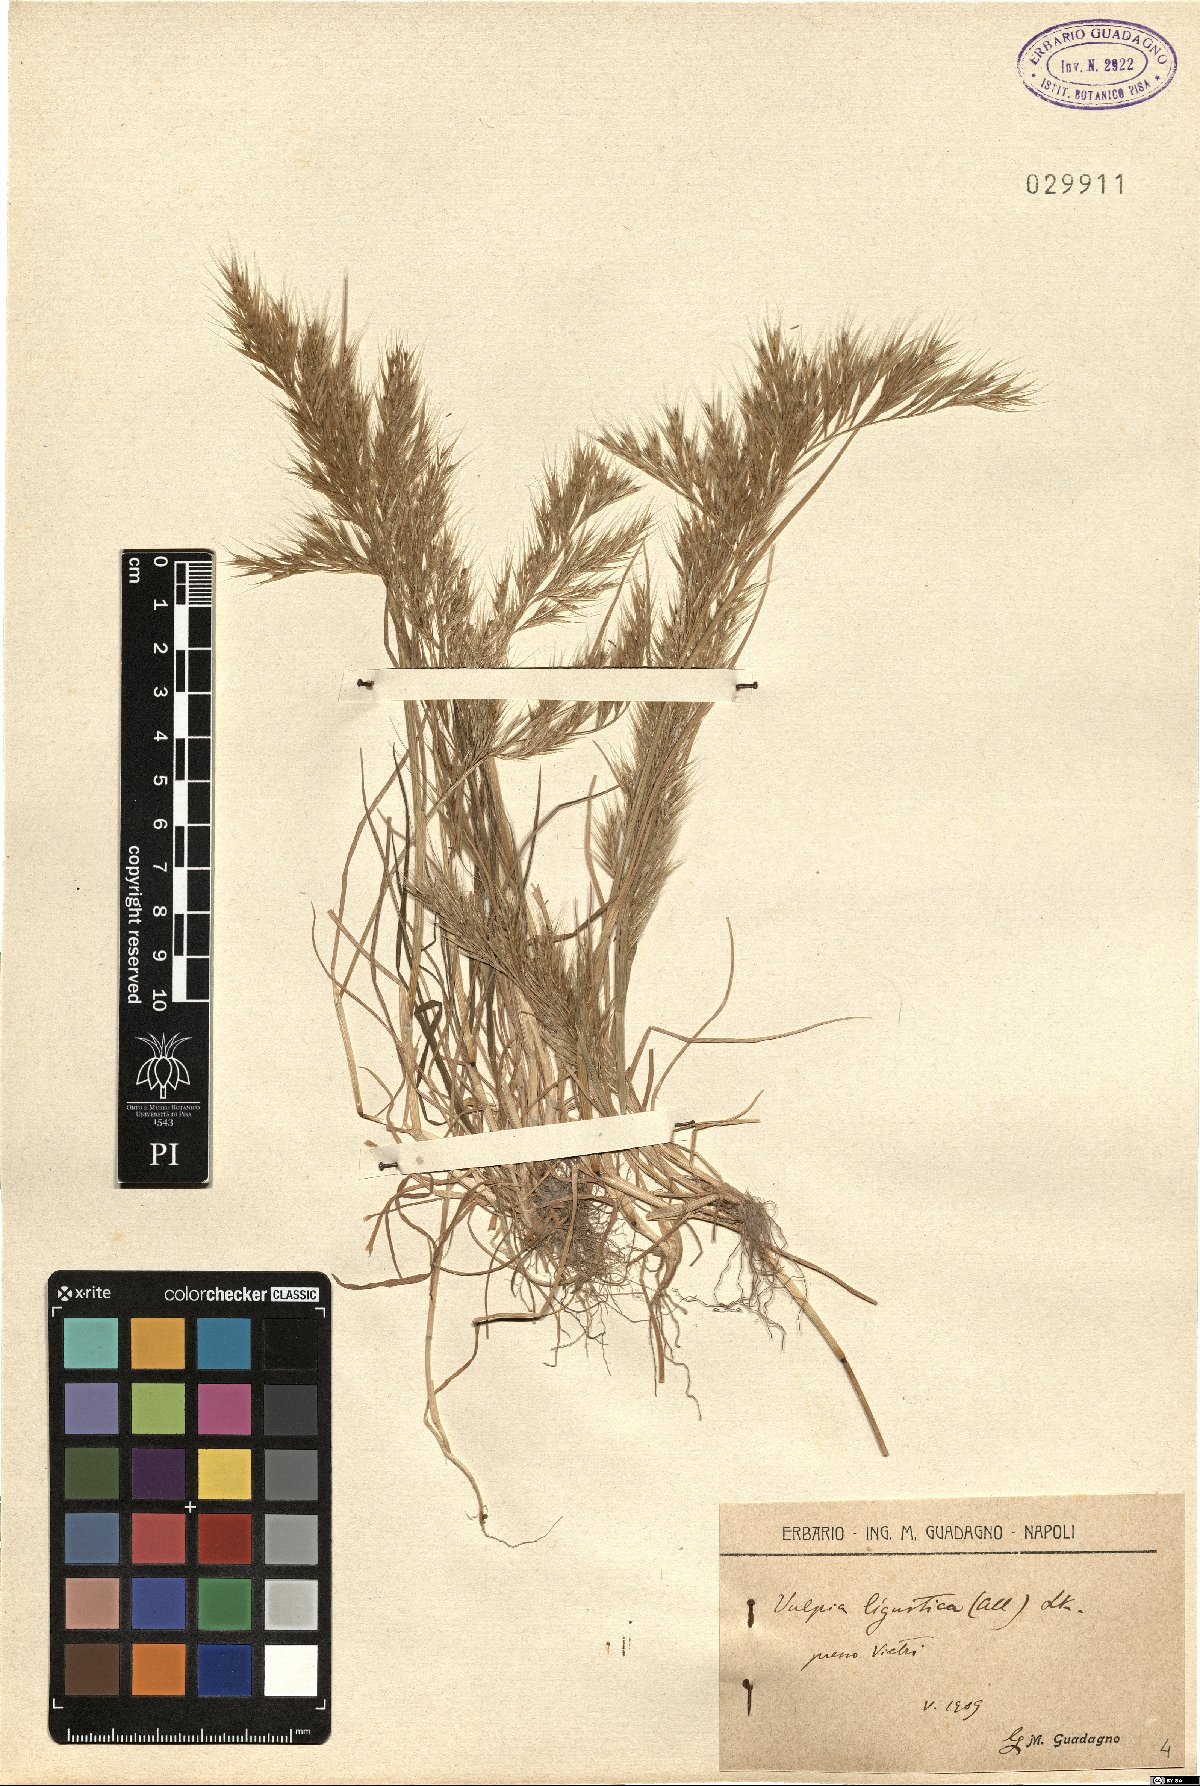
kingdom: Plantae
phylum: Tracheophyta
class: Liliopsida
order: Poales
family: Poaceae
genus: Festuca
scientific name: Festuca ligustica
